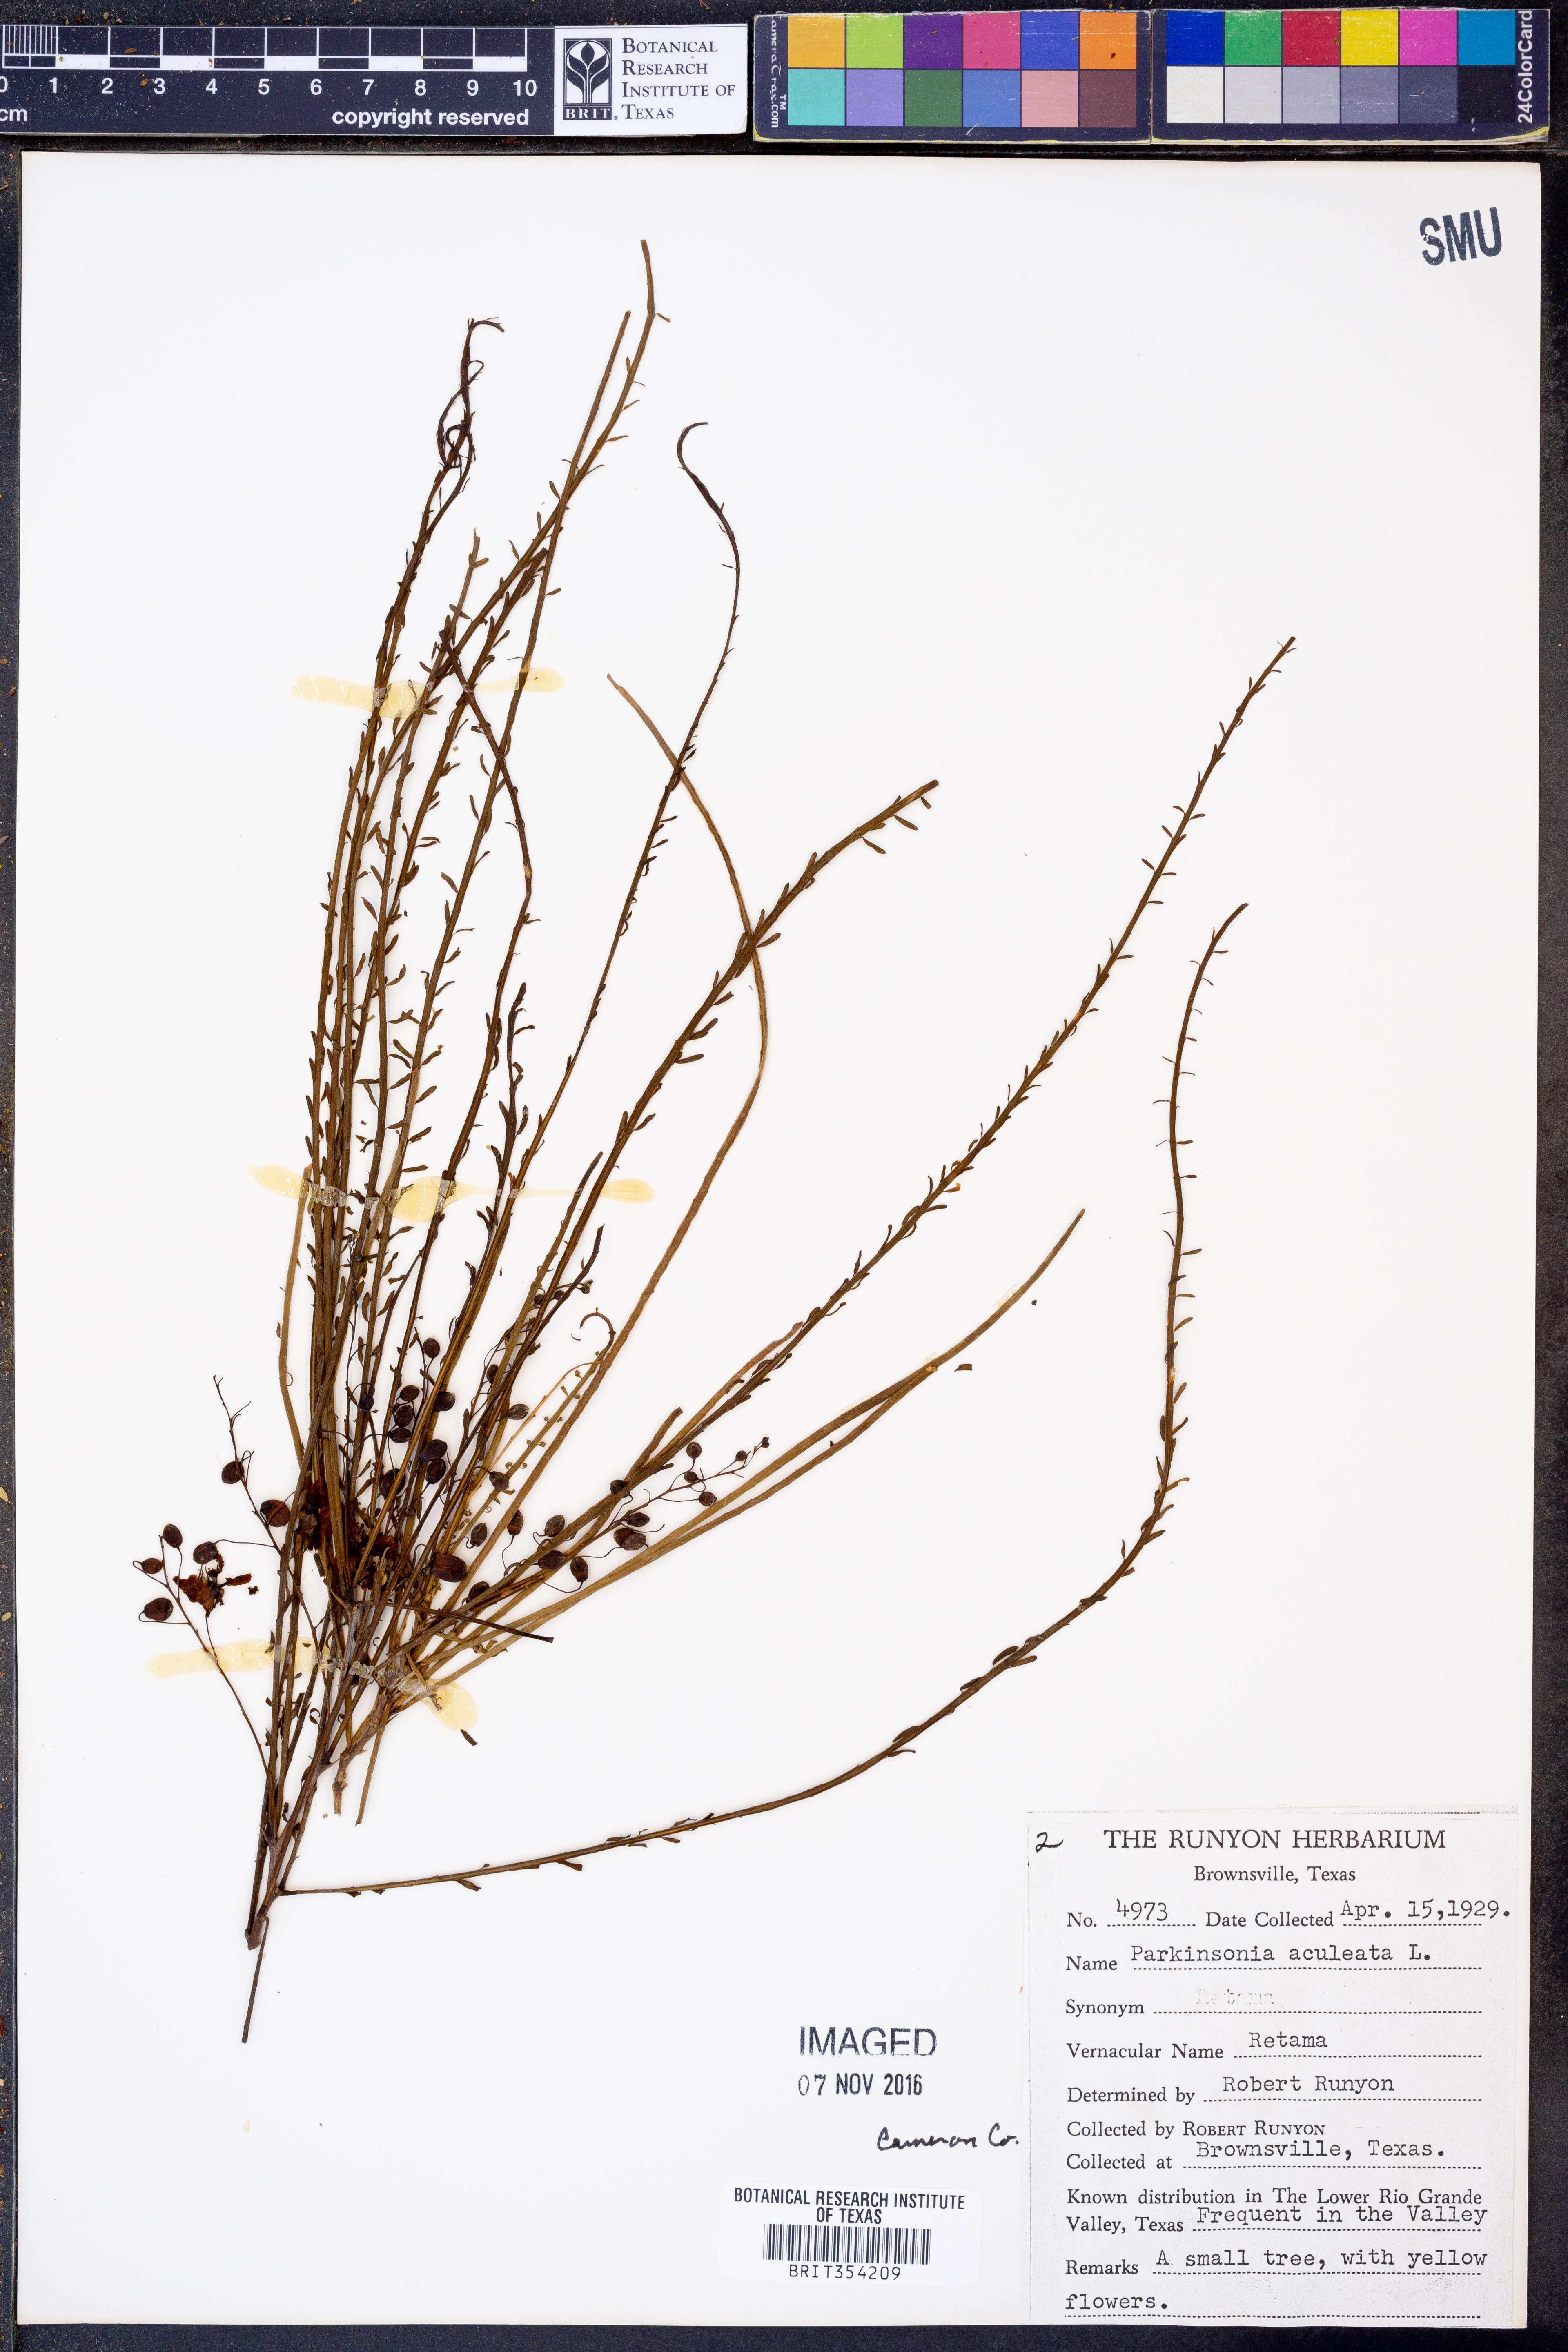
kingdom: Plantae
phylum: Tracheophyta
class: Magnoliopsida
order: Fabales
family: Fabaceae
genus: Parkinsonia
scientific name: Parkinsonia aculeata
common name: Jerusalem thorn
